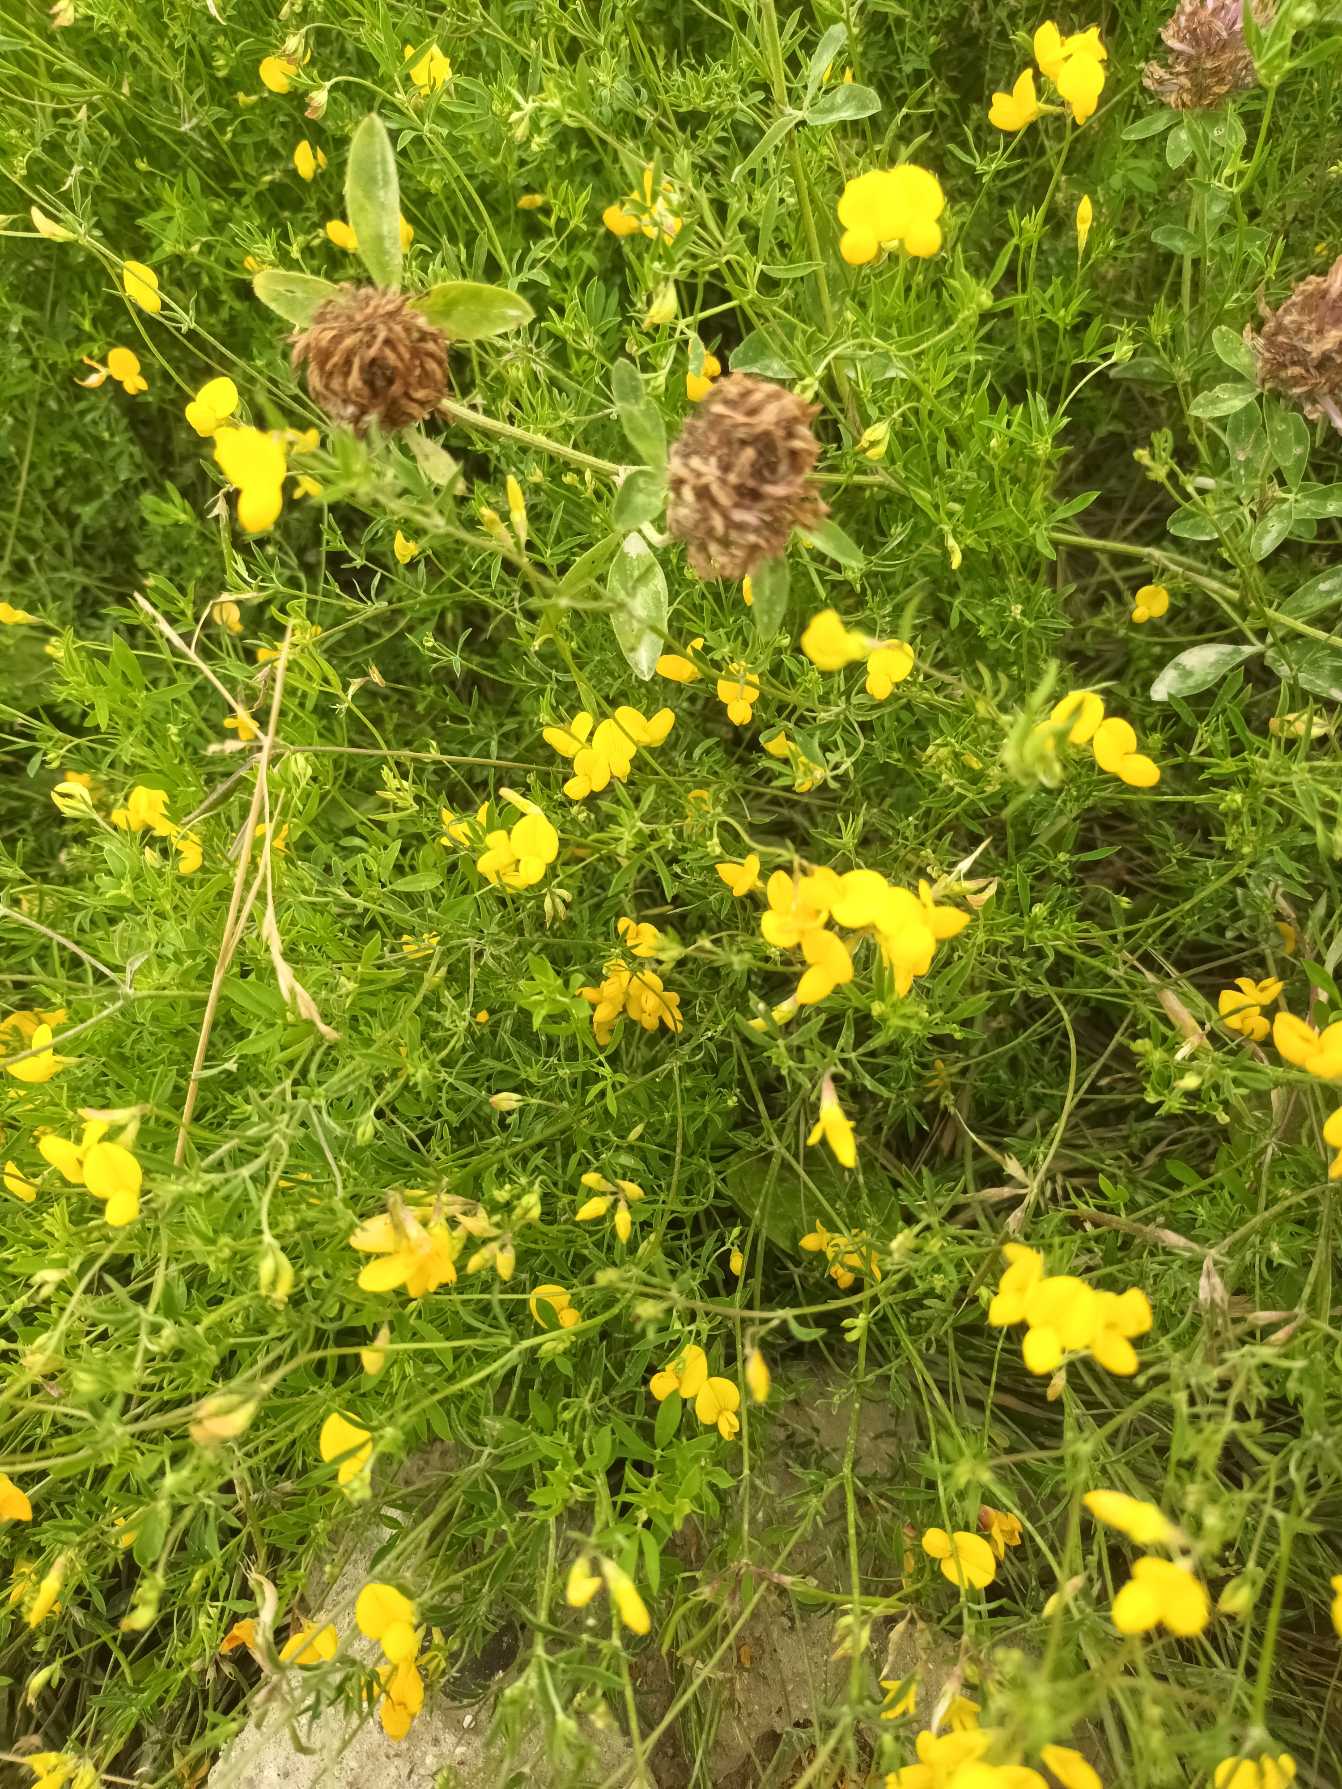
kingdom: Plantae
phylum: Tracheophyta
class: Magnoliopsida
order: Fabales
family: Fabaceae
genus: Lotus
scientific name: Lotus tenuis
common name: Smalbladet kællingetand
